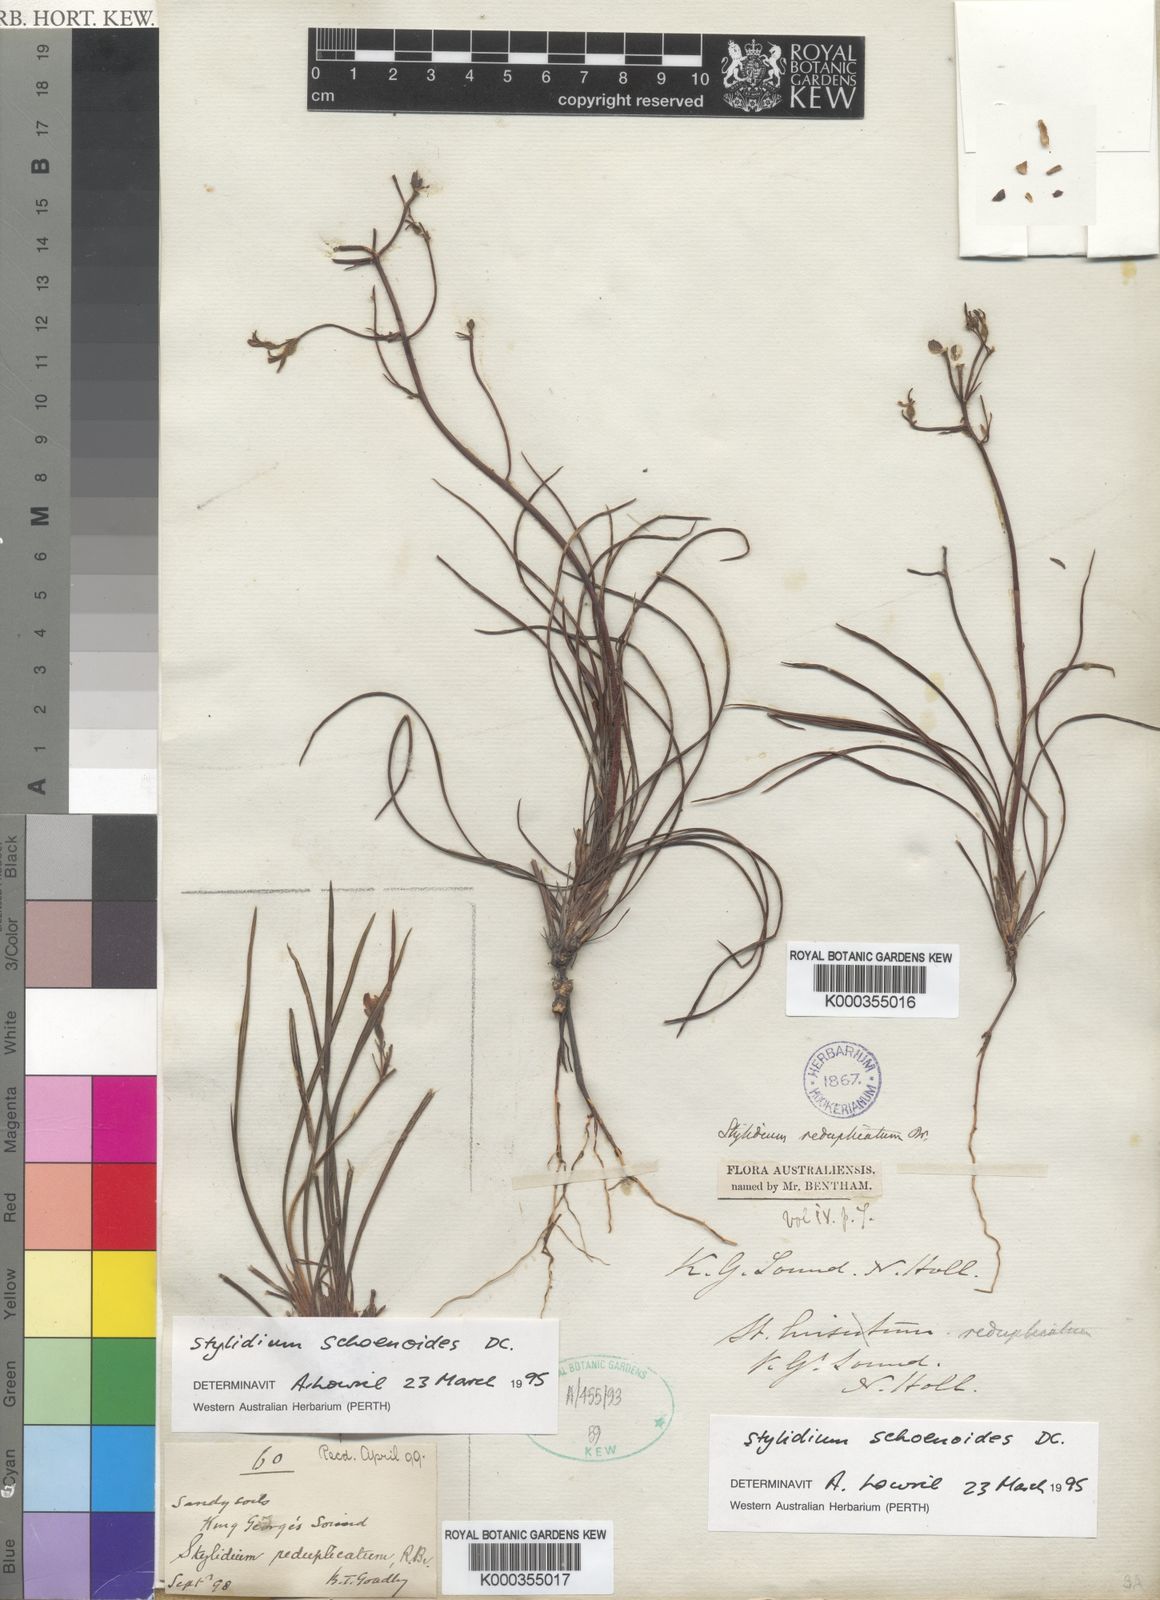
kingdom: Plantae
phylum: Tracheophyta
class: Magnoliopsida
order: Asterales
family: Stylidiaceae
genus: Stylidium
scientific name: Stylidium schoenoides
